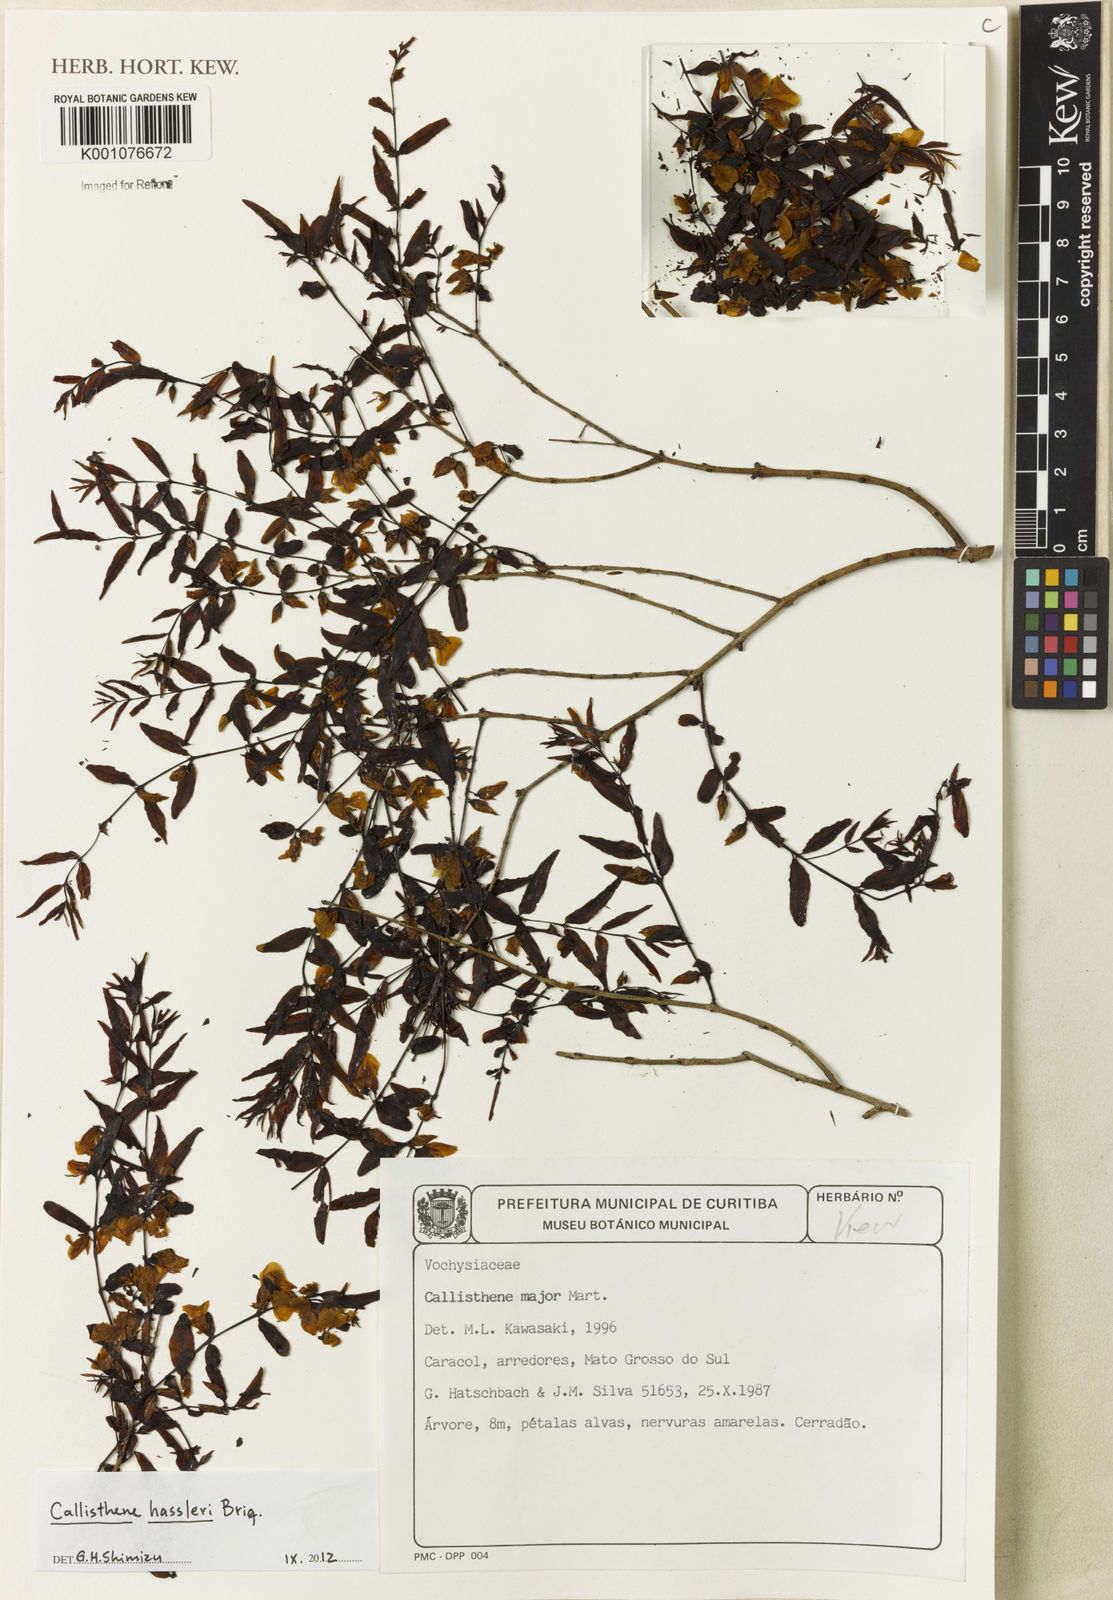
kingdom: Plantae
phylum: Tracheophyta
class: Magnoliopsida
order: Myrtales
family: Vochysiaceae
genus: Callisthene
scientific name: Callisthene hassleri
